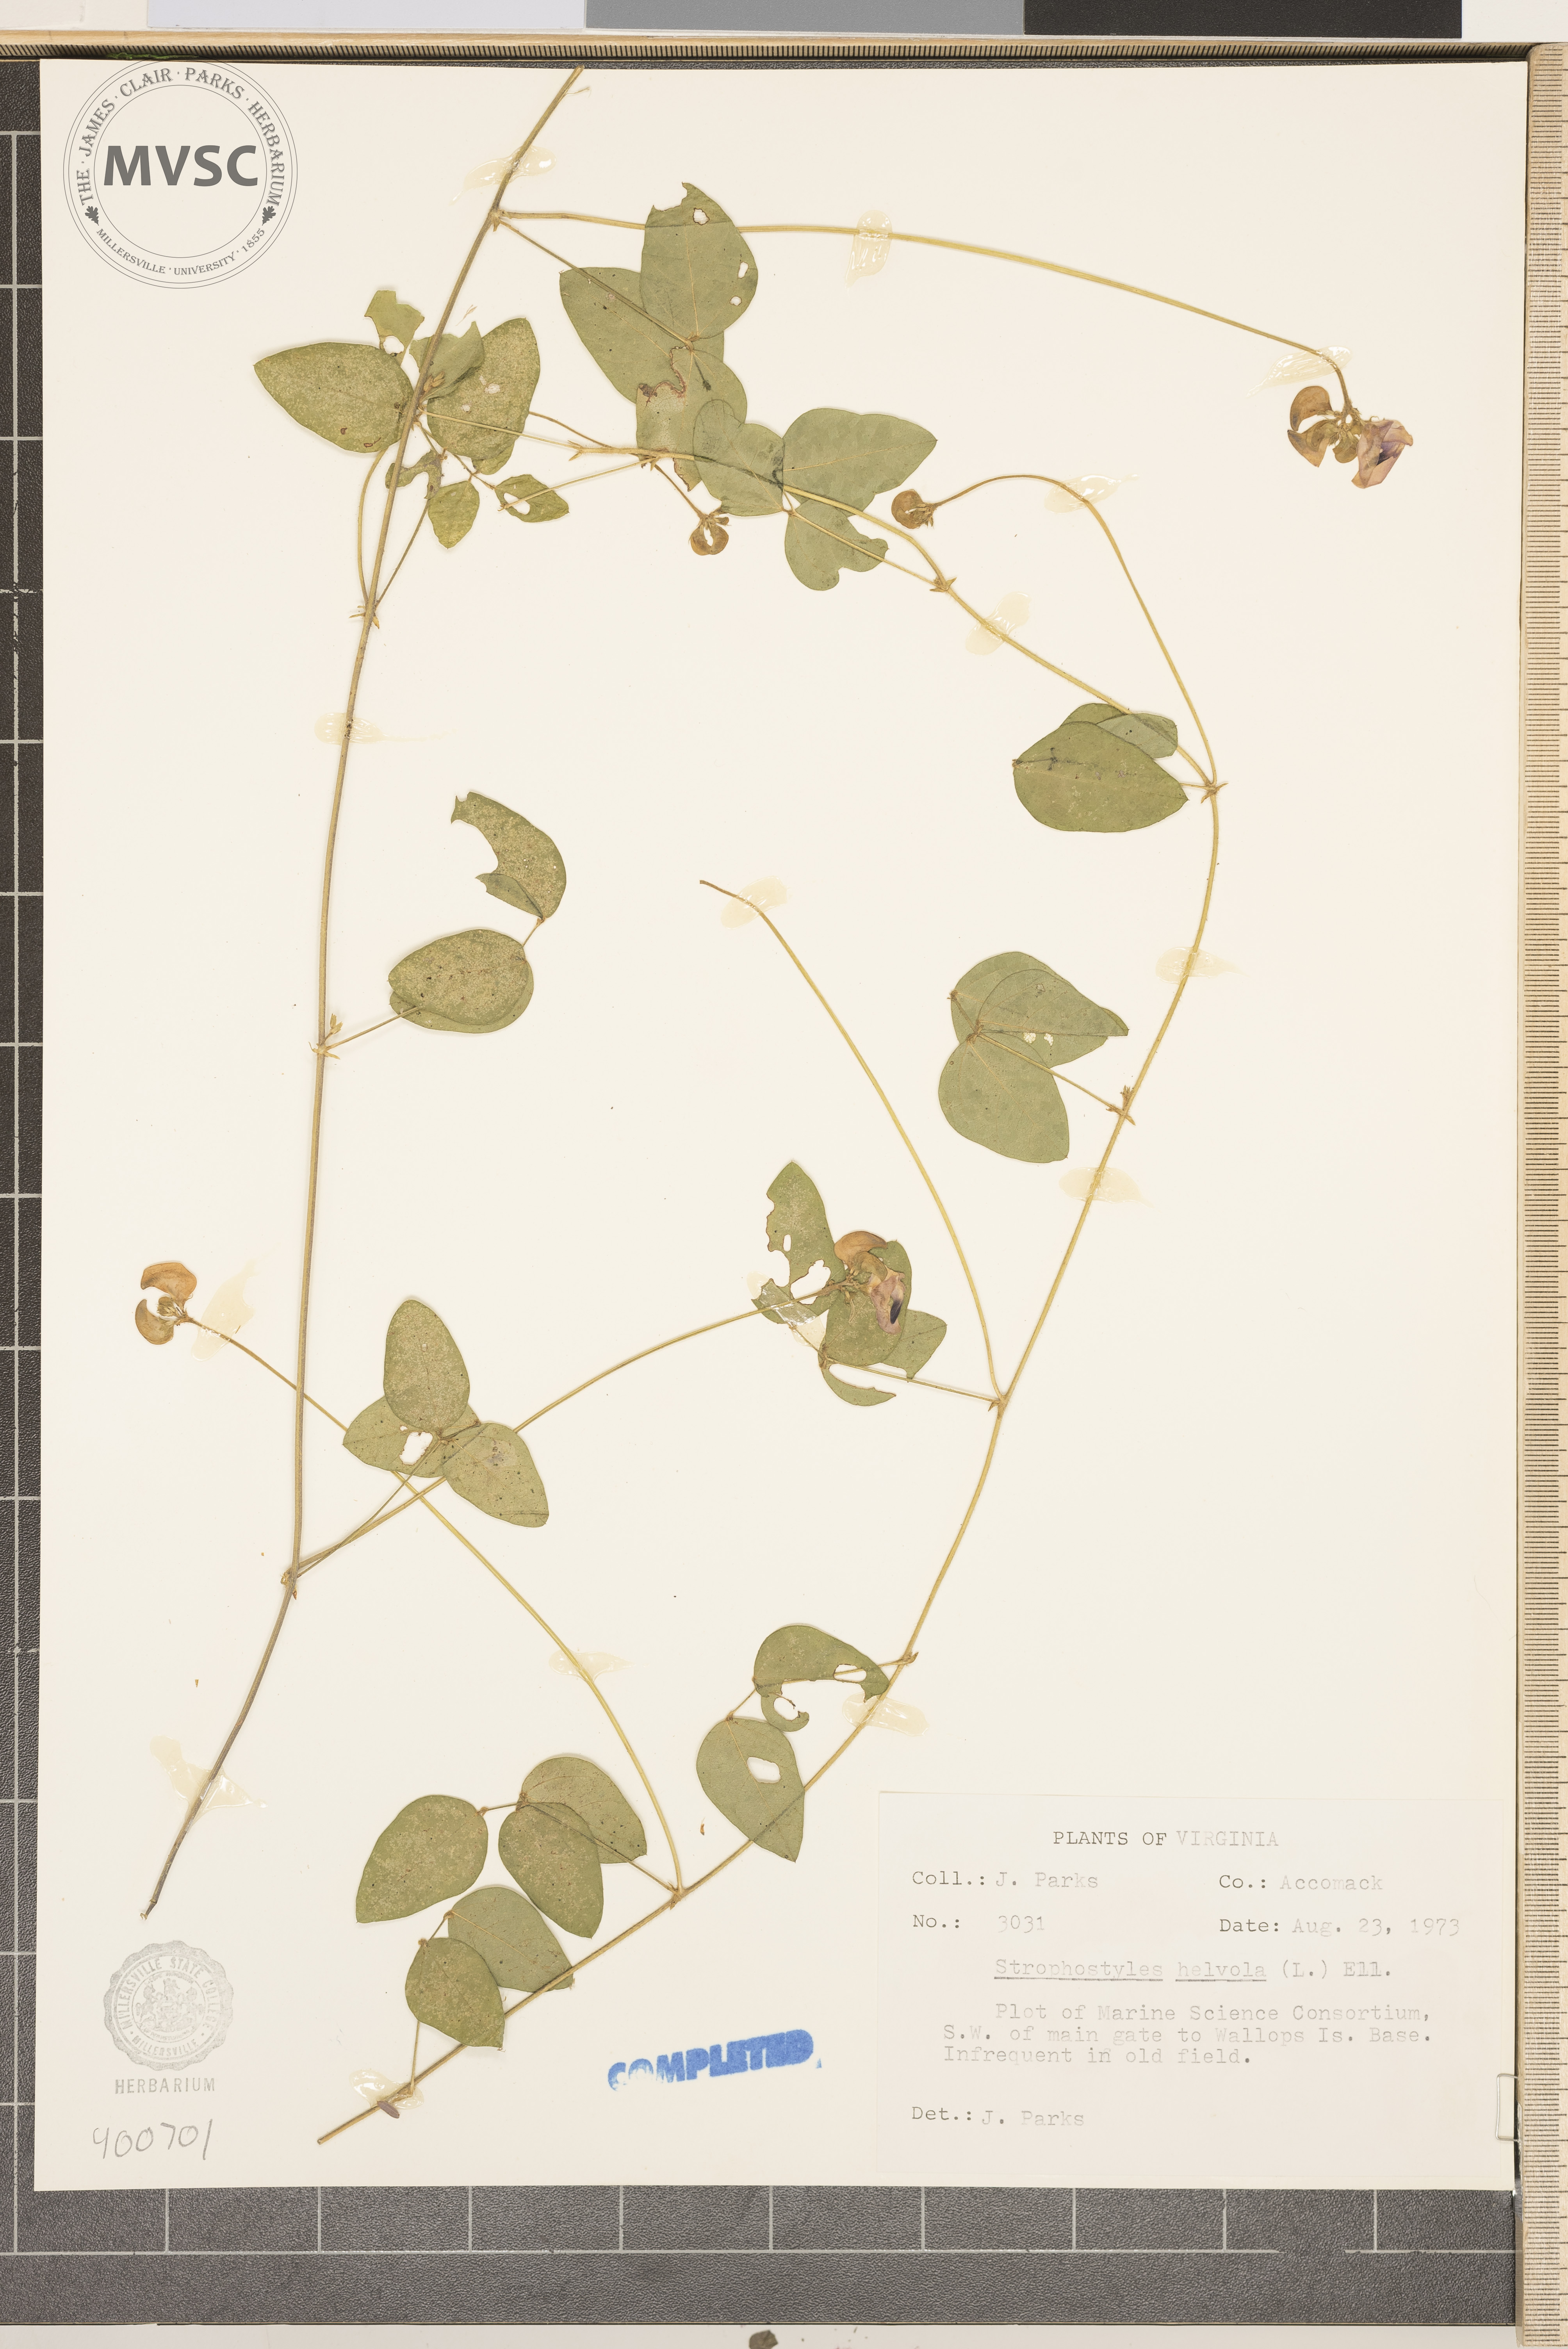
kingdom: Plantae
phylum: Tracheophyta
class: Magnoliopsida
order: Fabales
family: Fabaceae
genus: Strophostyles
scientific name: Strophostyles helvola
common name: Trailing wild bean
